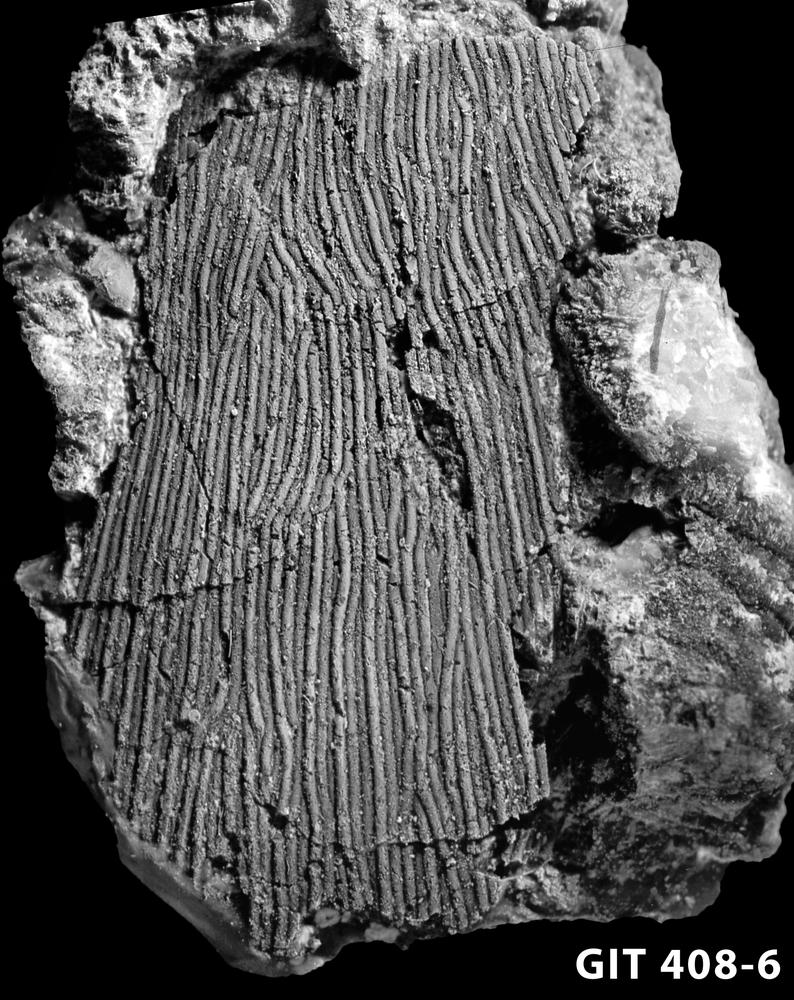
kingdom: Animalia
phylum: Chordata
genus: Archegonaspis
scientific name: Archegonaspis
